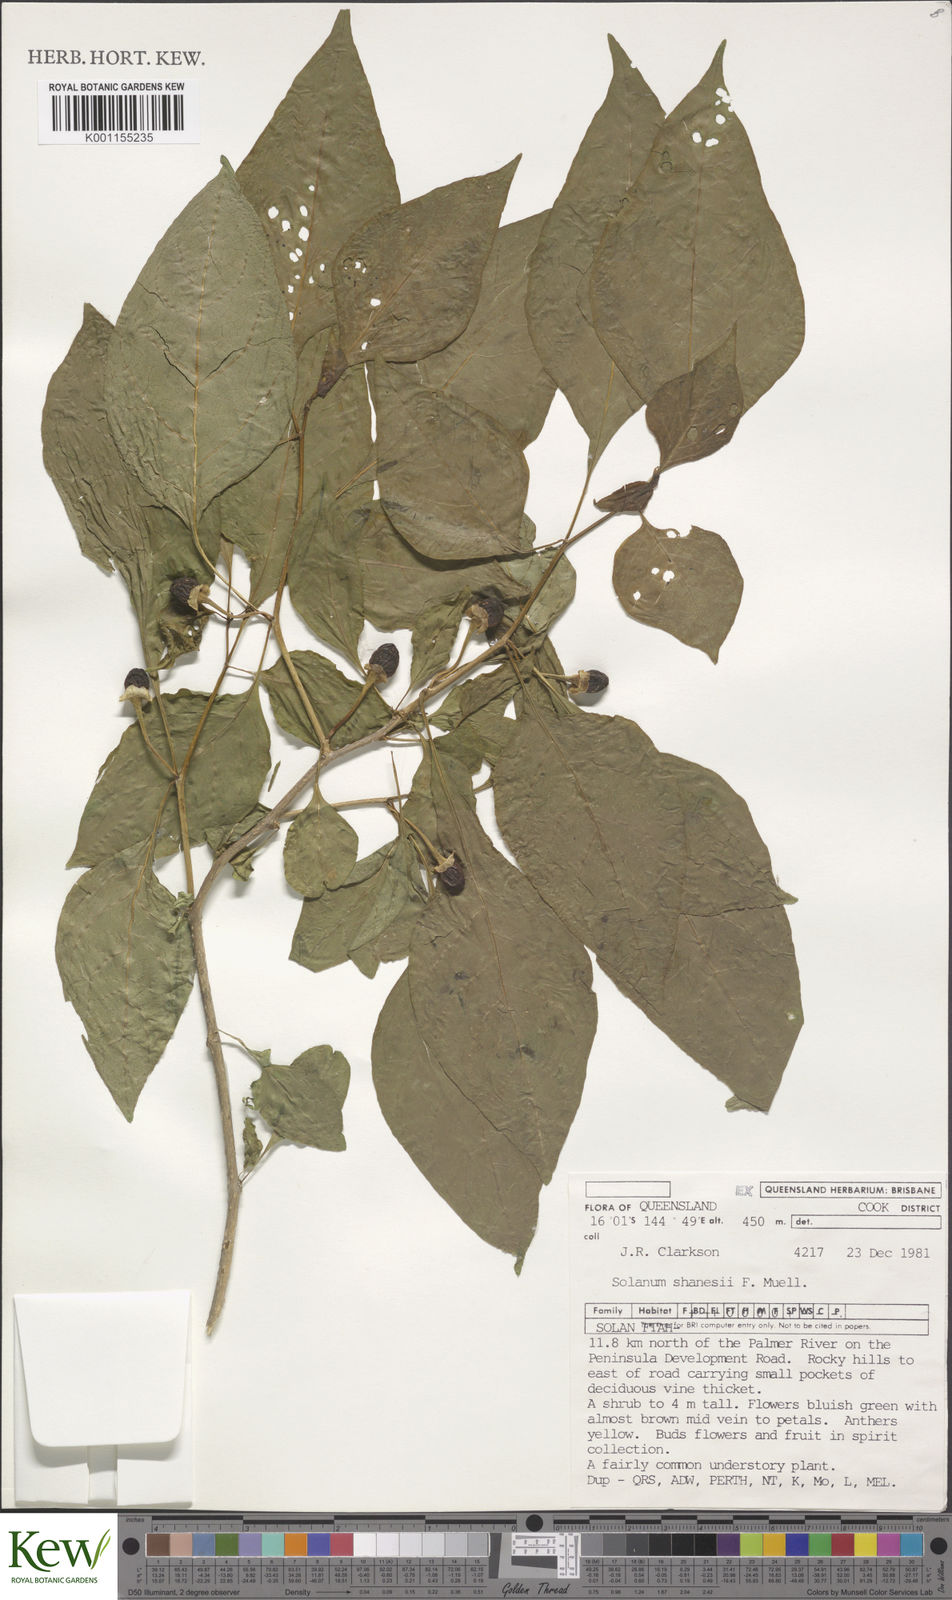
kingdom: Plantae
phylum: Tracheophyta
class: Magnoliopsida
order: Solanales
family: Solanaceae
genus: Lycianthes
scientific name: Lycianthes shanesii
